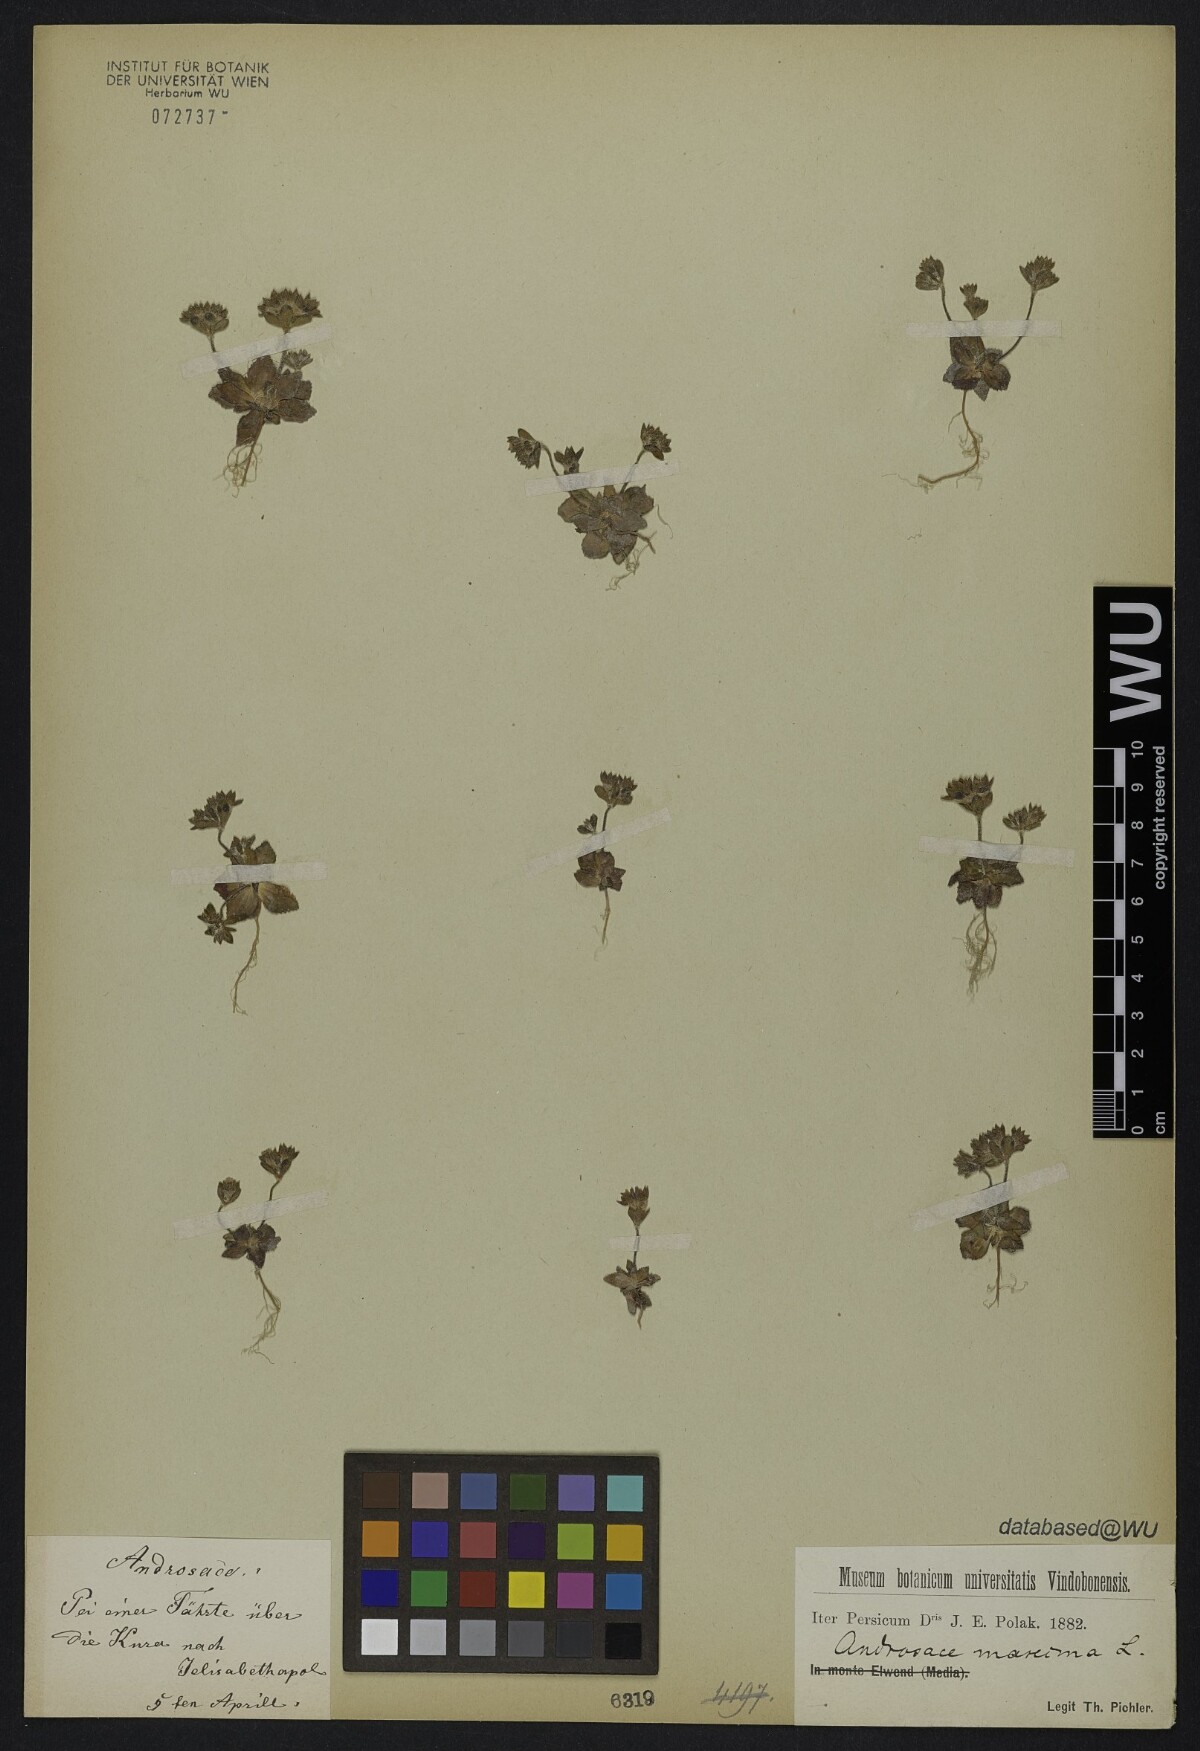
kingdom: Plantae
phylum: Tracheophyta
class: Magnoliopsida
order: Ericales
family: Primulaceae
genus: Androsace
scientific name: Androsace maxima
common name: Annual androsace
